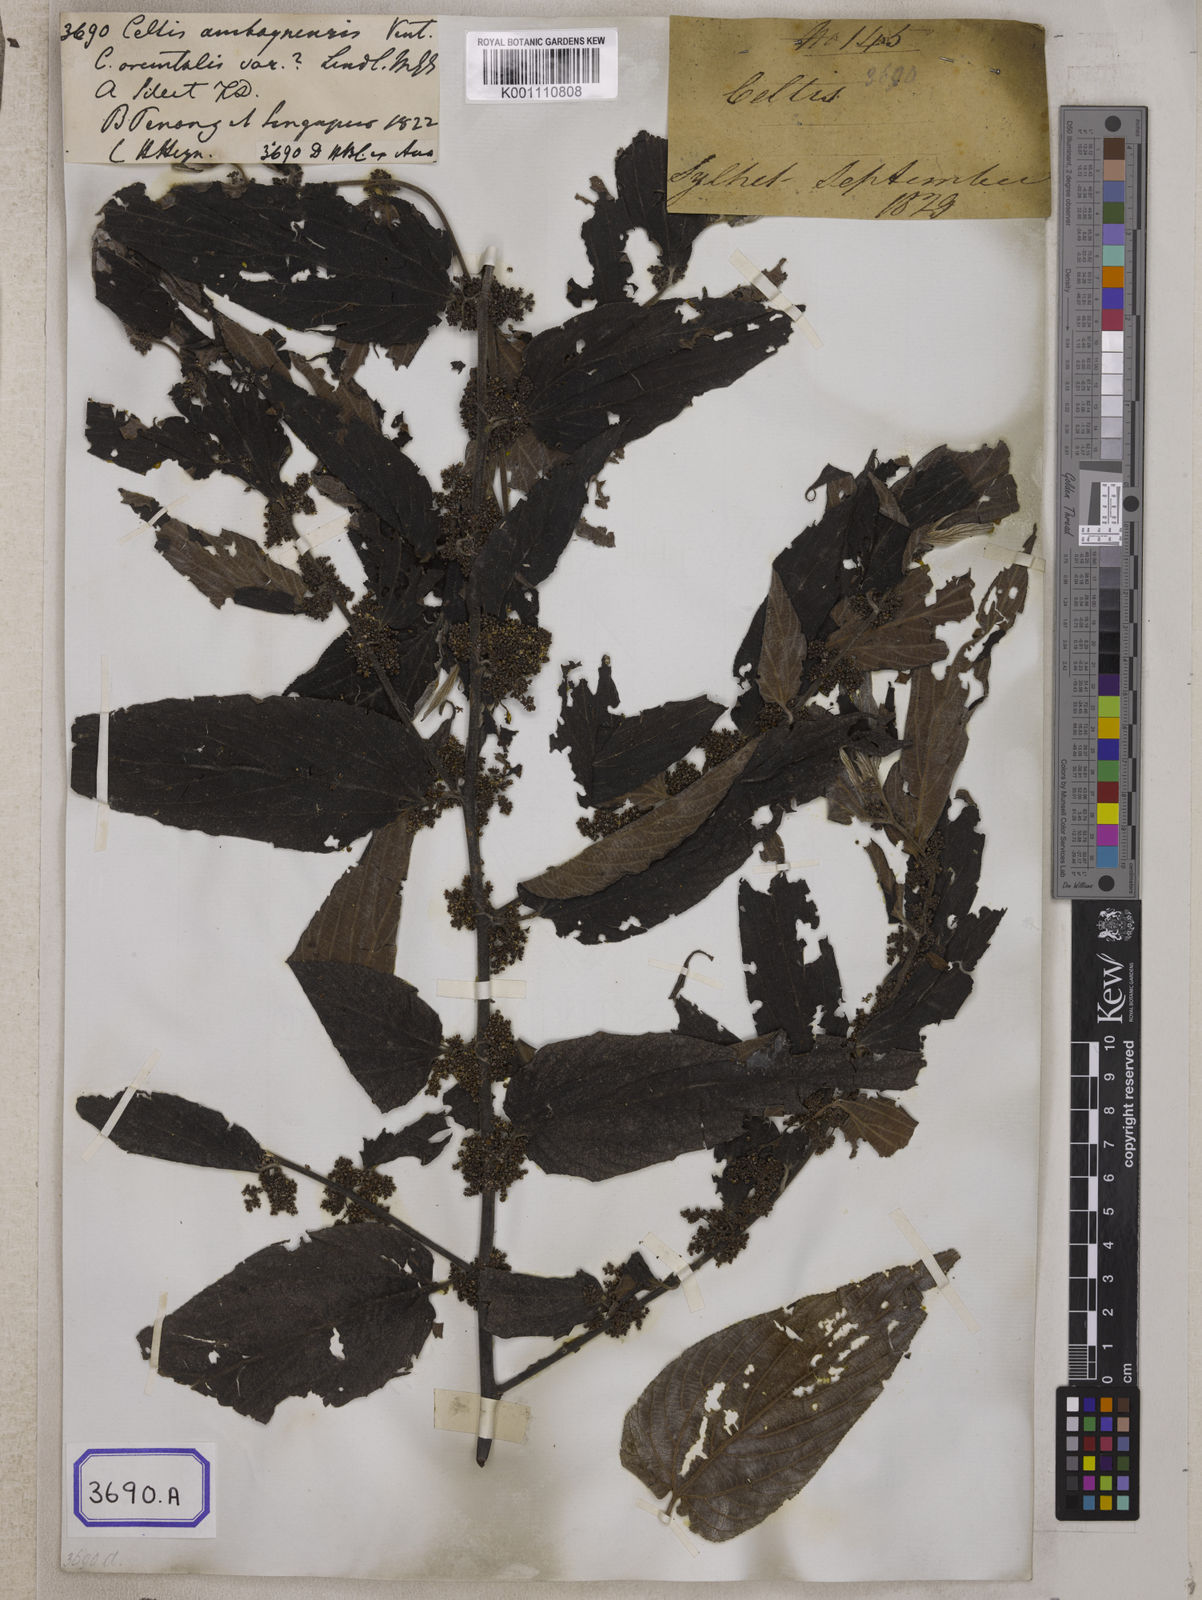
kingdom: Plantae
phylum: Tracheophyta
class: Magnoliopsida
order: Rosales
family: Cannabaceae
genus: Trema
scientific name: Trema tomentosum
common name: Peach-leaf-poisonbush
